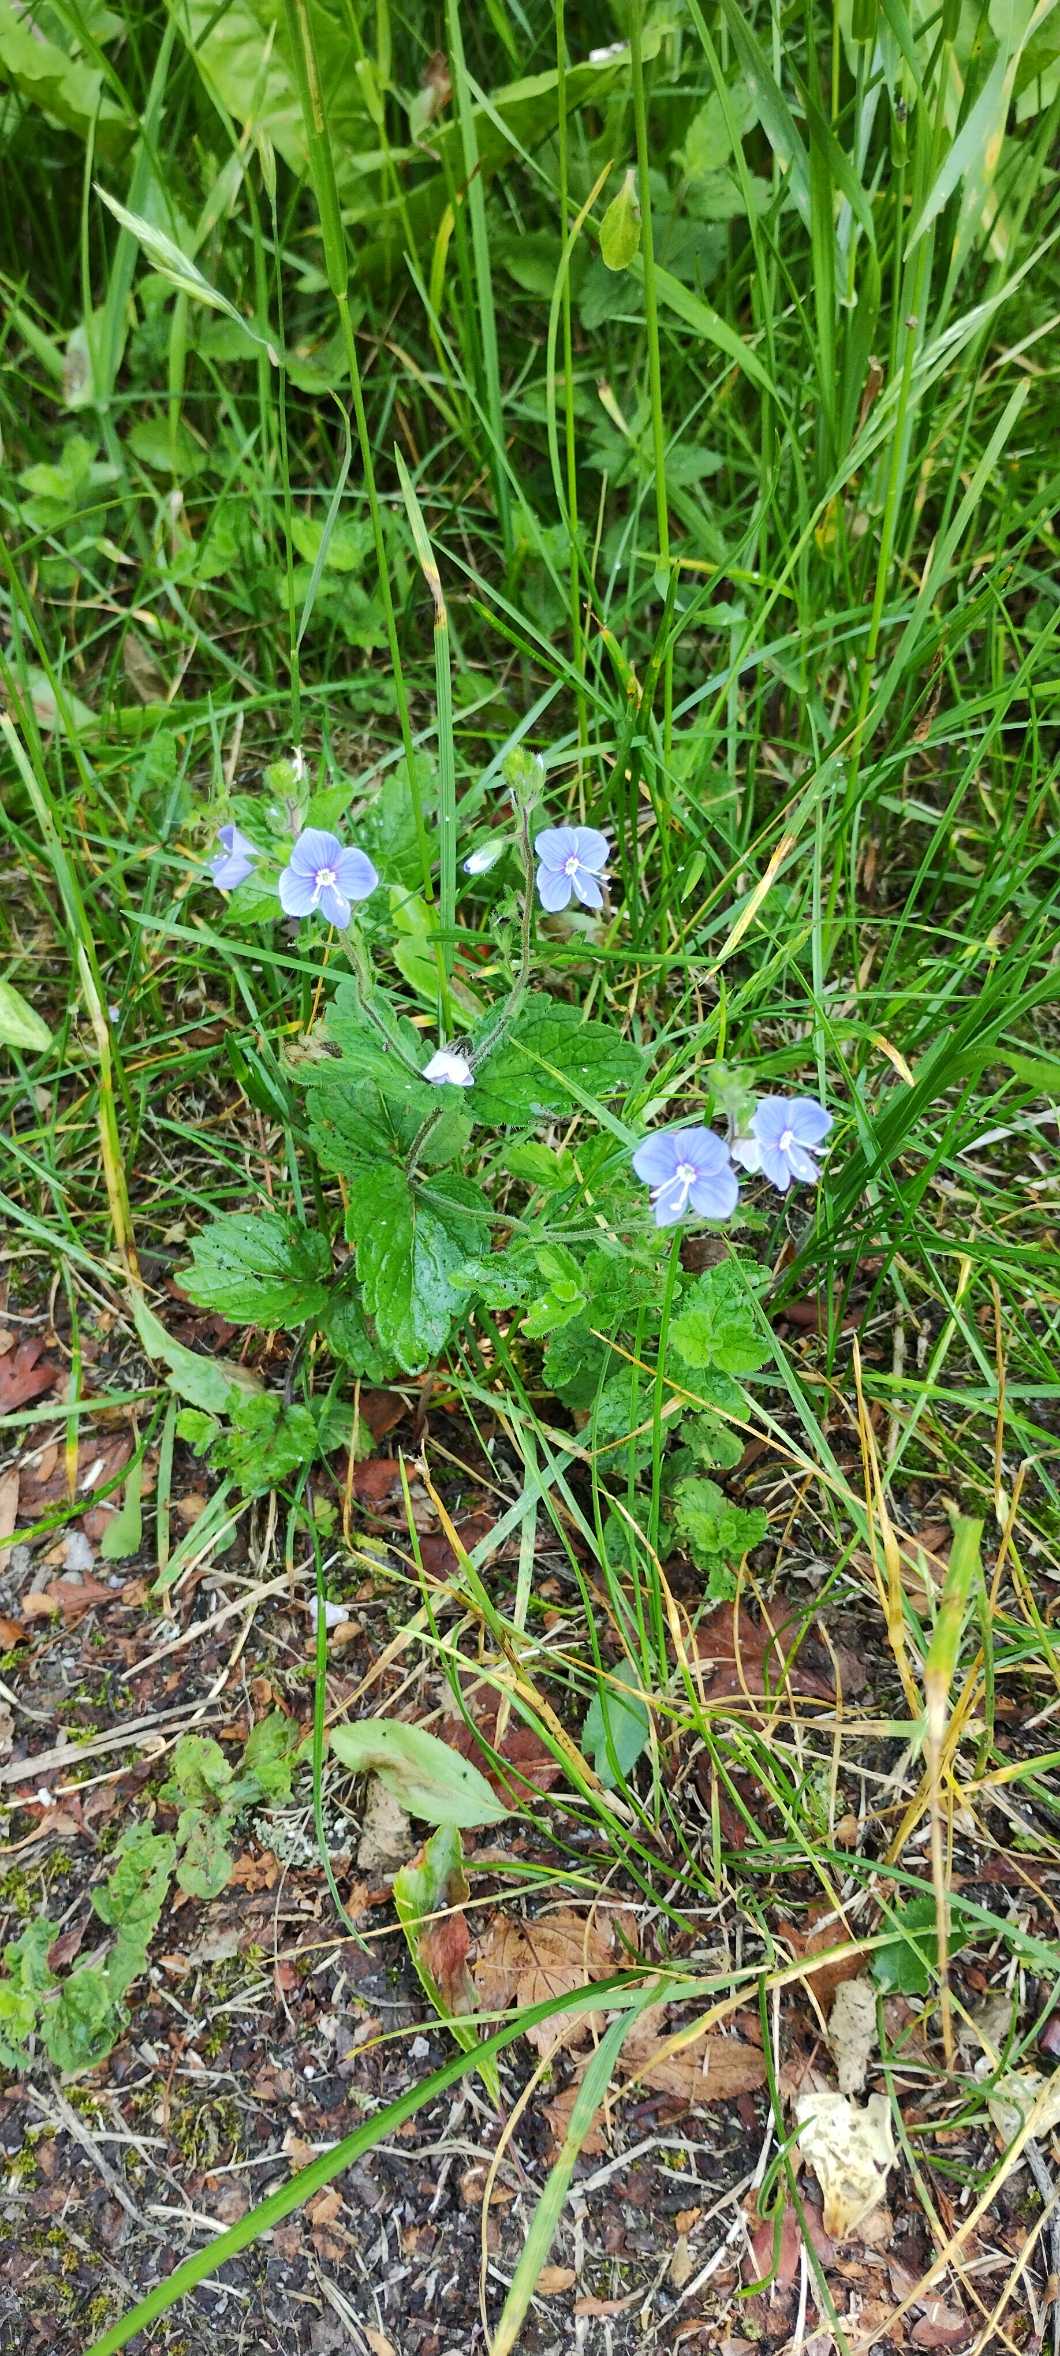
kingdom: Plantae
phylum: Tracheophyta
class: Magnoliopsida
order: Lamiales
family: Plantaginaceae
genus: Veronica
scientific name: Veronica chamaedrys
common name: Tveskægget ærenpris
